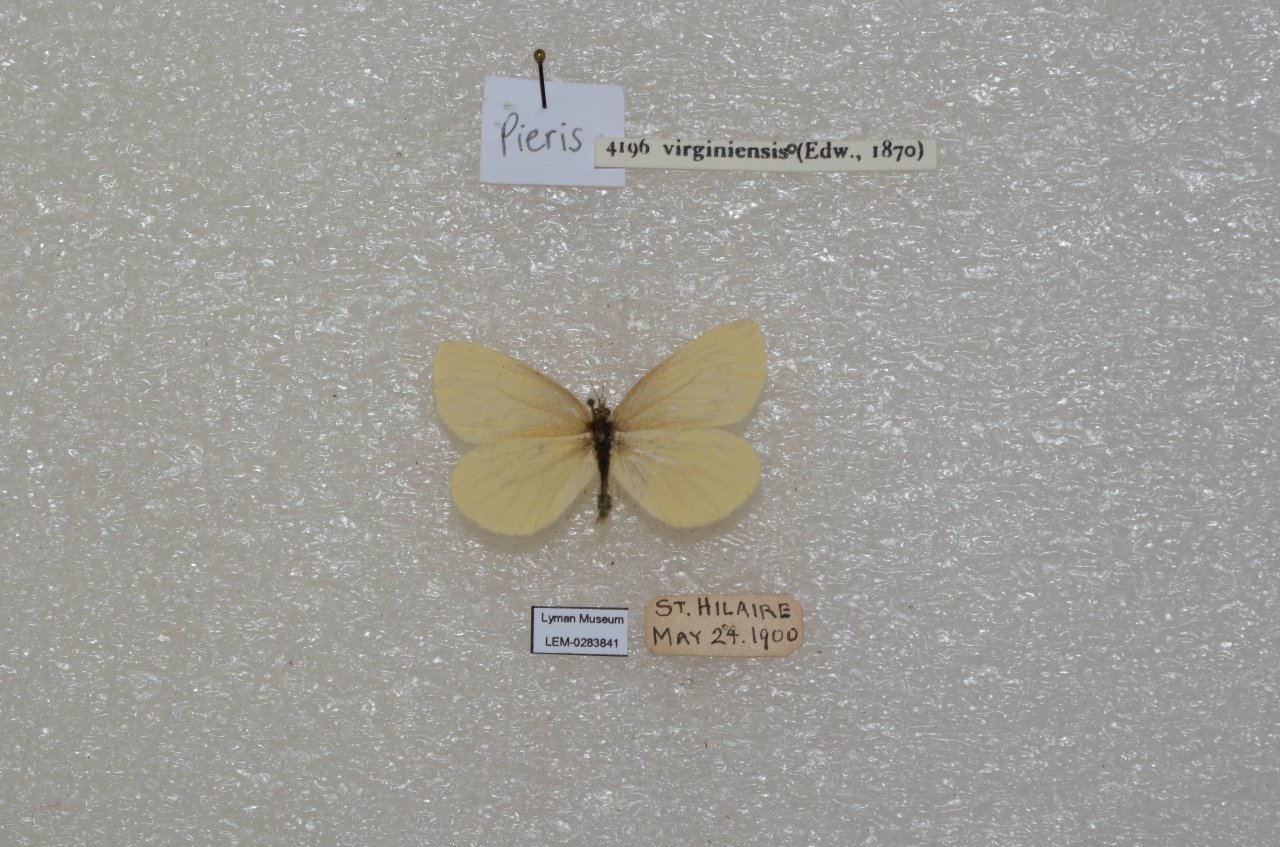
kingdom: Animalia
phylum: Arthropoda
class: Insecta
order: Lepidoptera
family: Pieridae
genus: Pieris
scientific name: Pieris virginiensis
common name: West Virginia White
